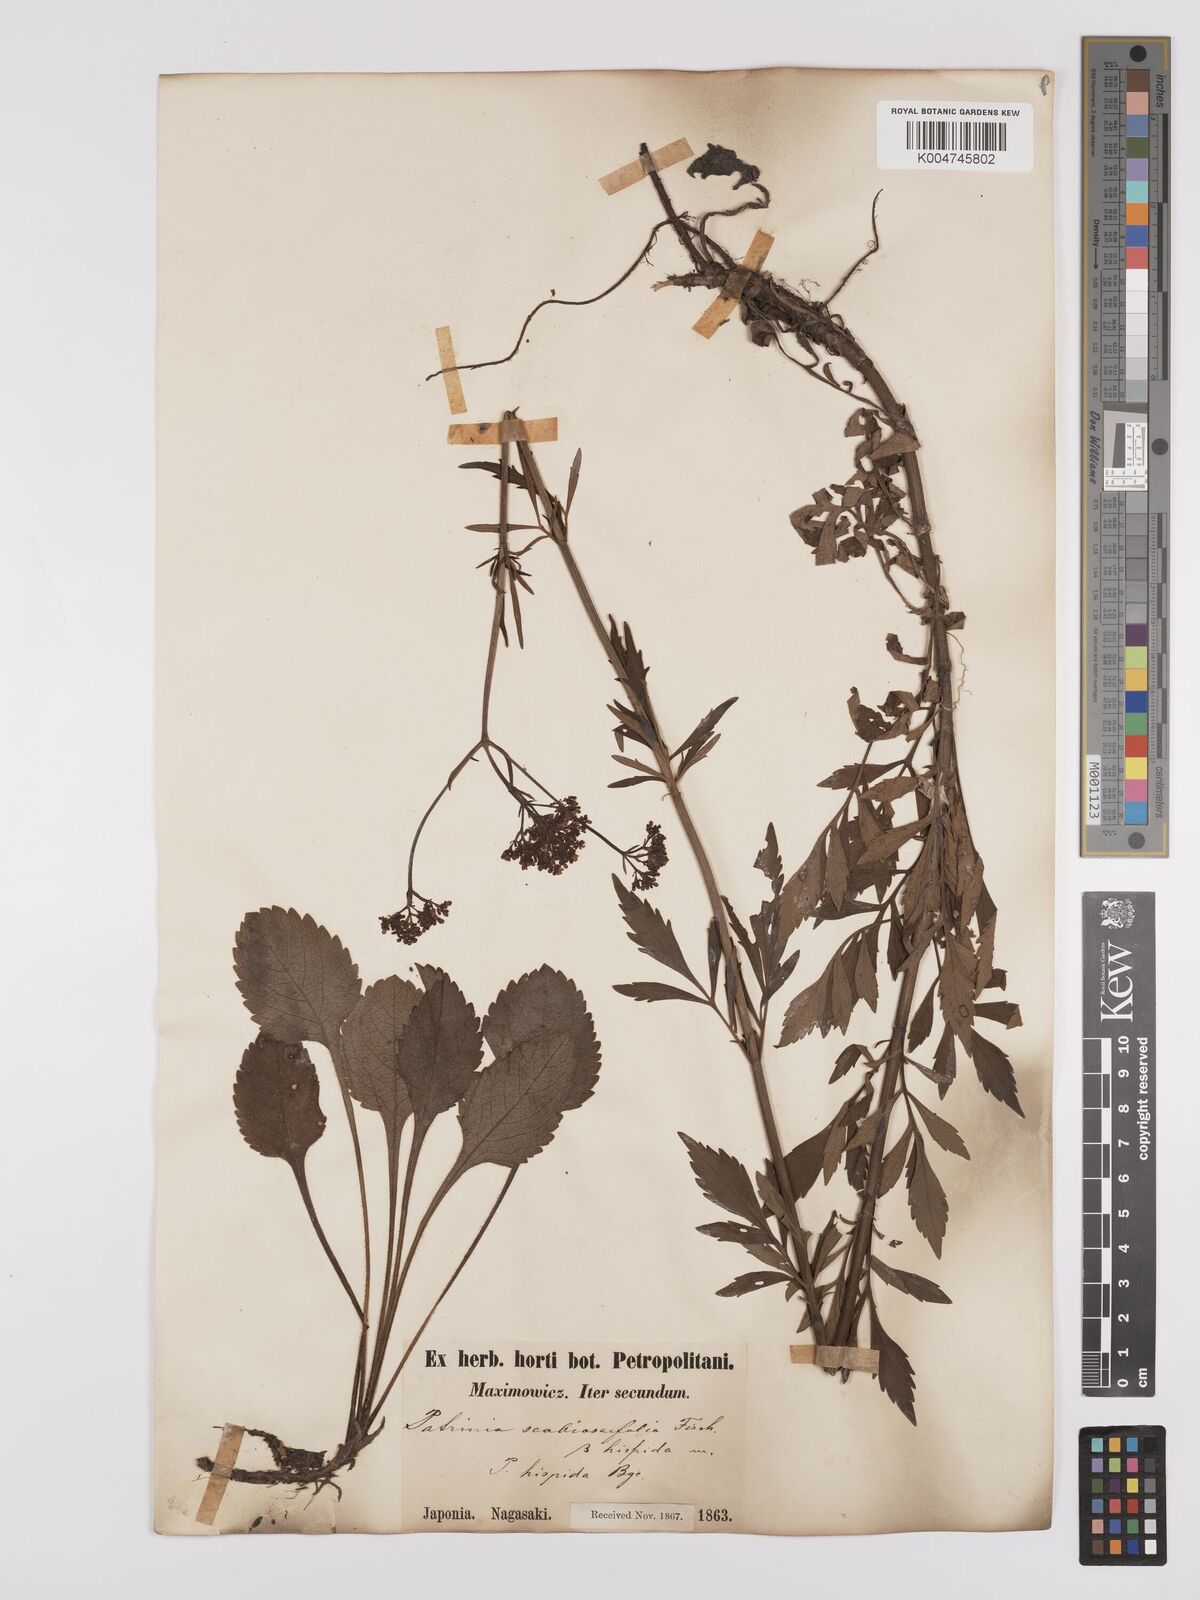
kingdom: Plantae
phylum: Tracheophyta
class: Magnoliopsida
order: Dipsacales
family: Caprifoliaceae
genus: Patrinia
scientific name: Patrinia scabiosifolia
